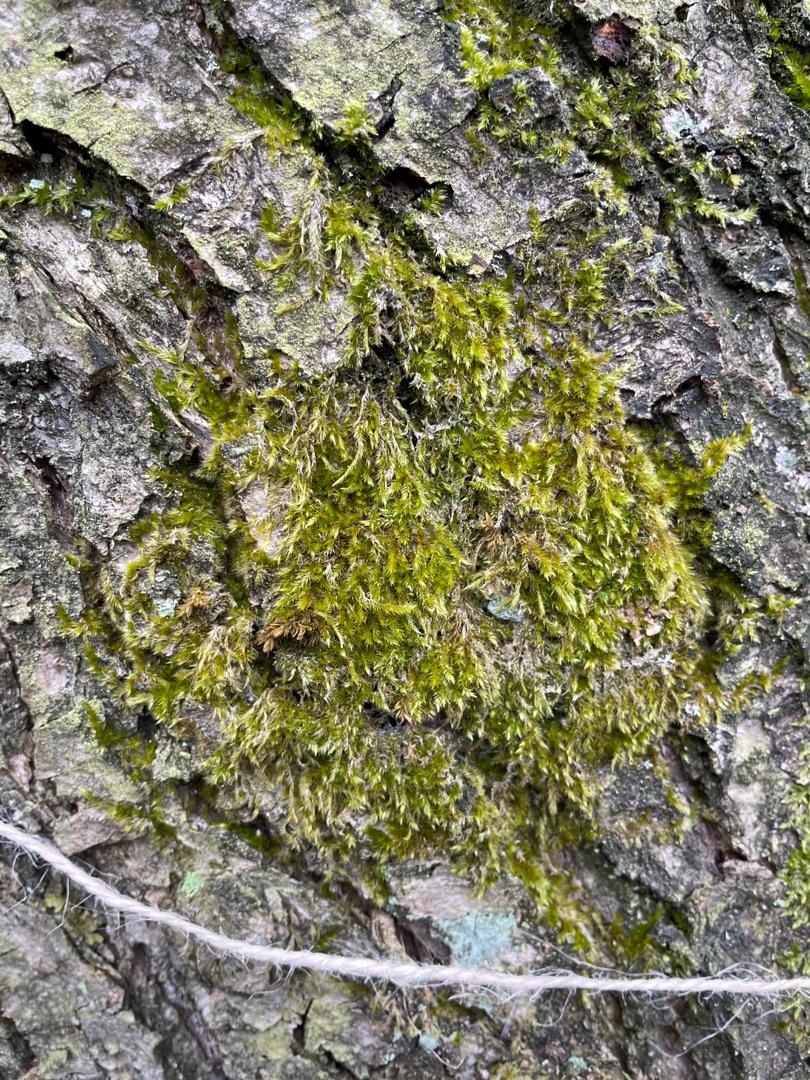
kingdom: Plantae
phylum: Bryophyta
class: Bryopsida
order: Hypnales
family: Hypnaceae
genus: Hypnum
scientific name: Hypnum
